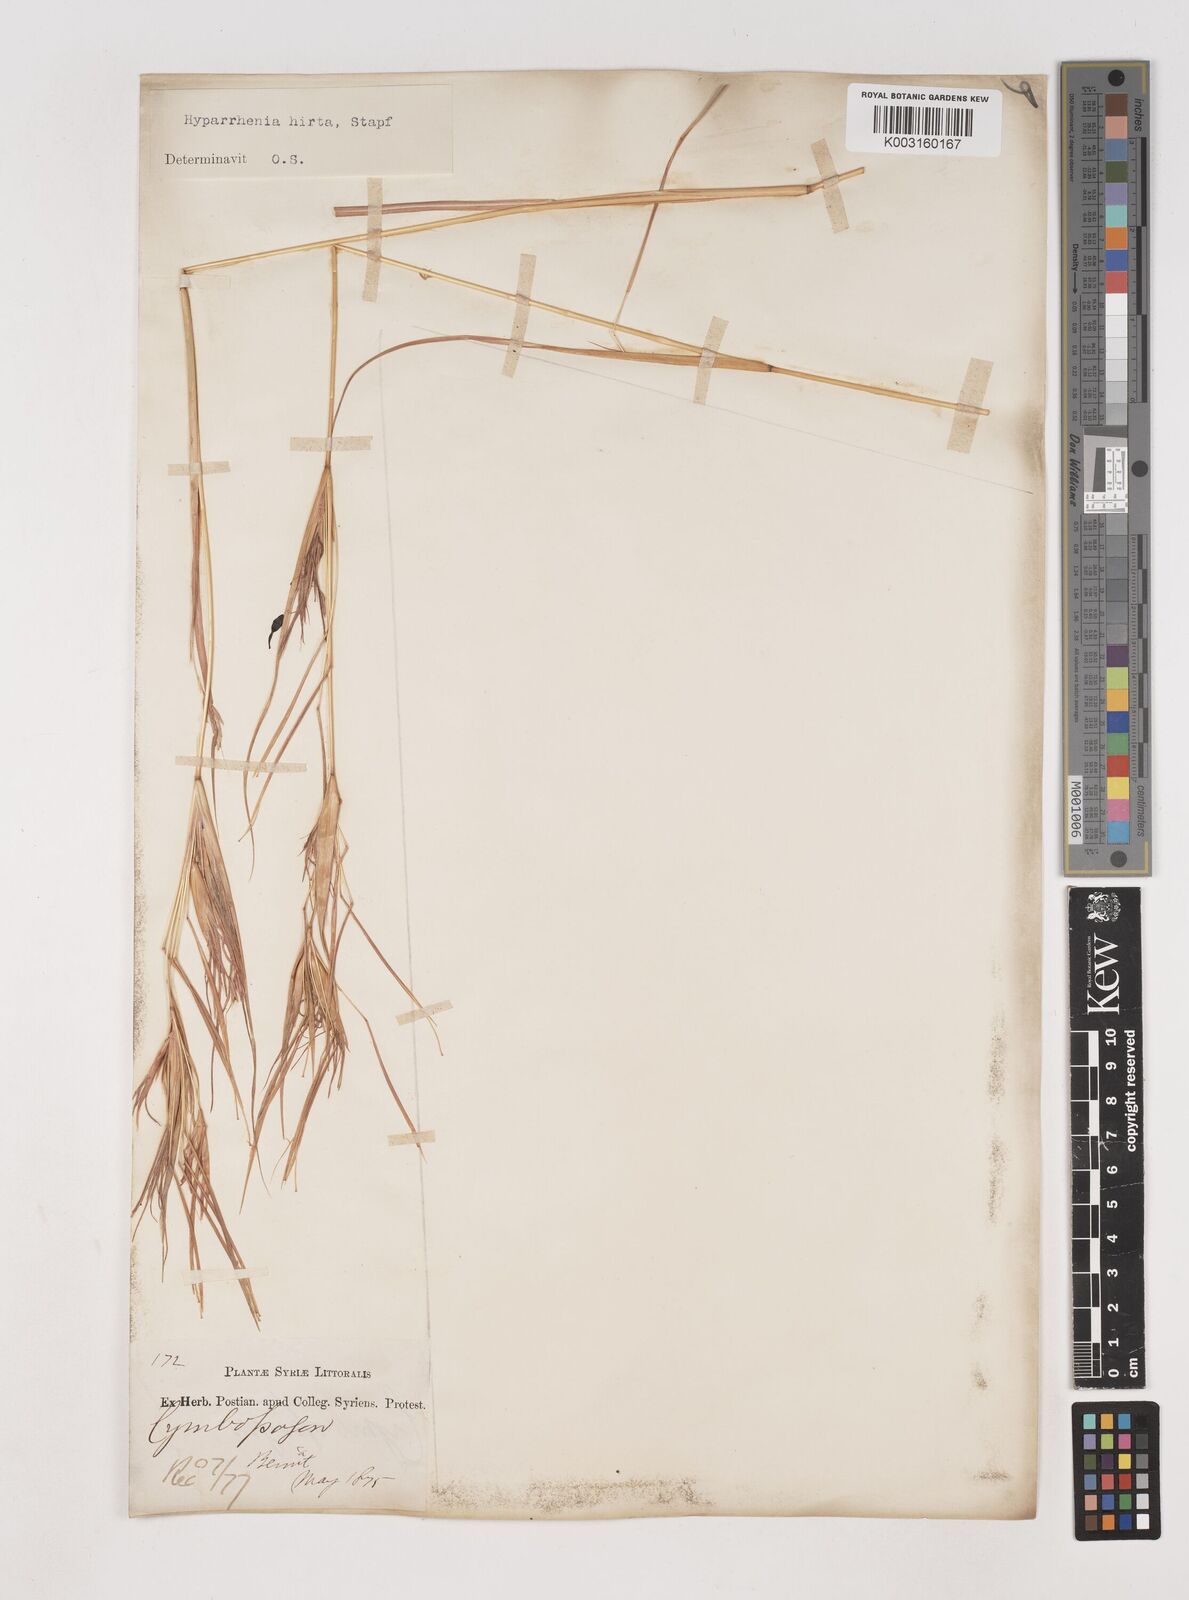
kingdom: Plantae
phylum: Tracheophyta
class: Liliopsida
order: Poales
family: Poaceae
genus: Hyparrhenia
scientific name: Hyparrhenia hirta
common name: Thatching grass
